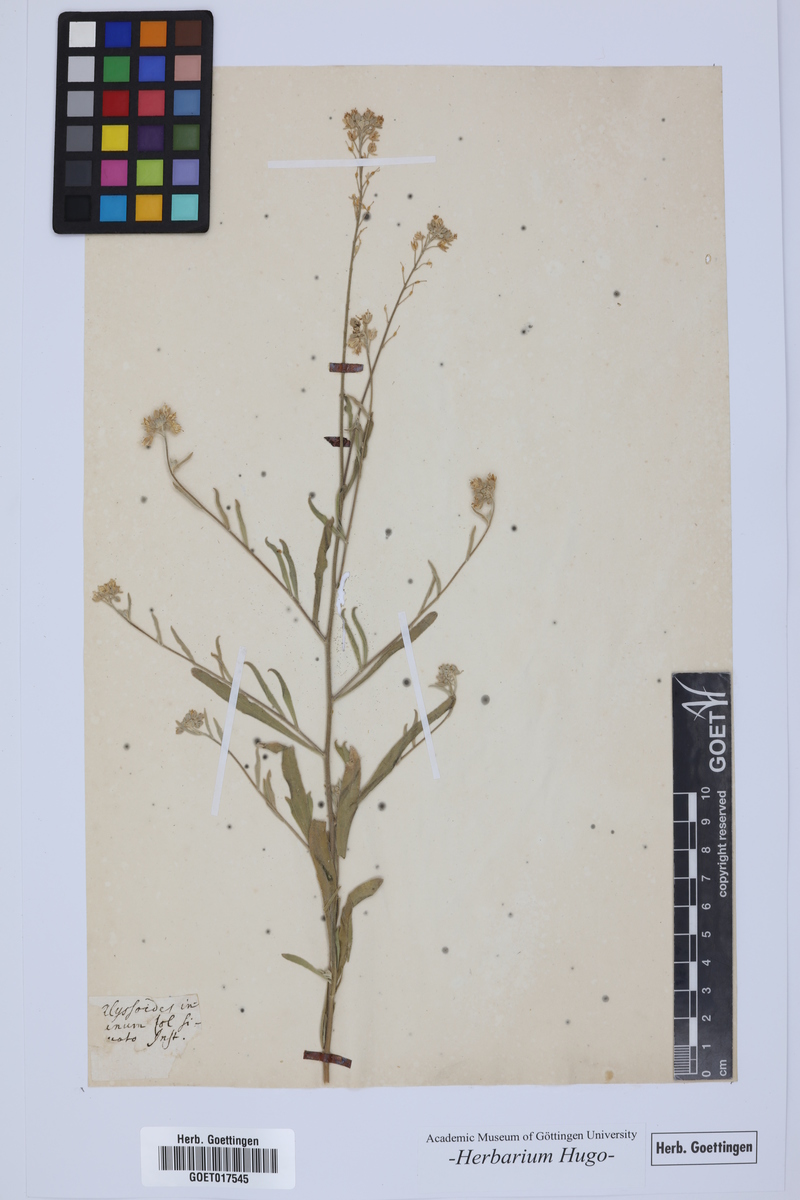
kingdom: Plantae
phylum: Tracheophyta
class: Magnoliopsida
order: Brassicales
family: Brassicaceae
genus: Aurinia
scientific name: Aurinia sinuata
